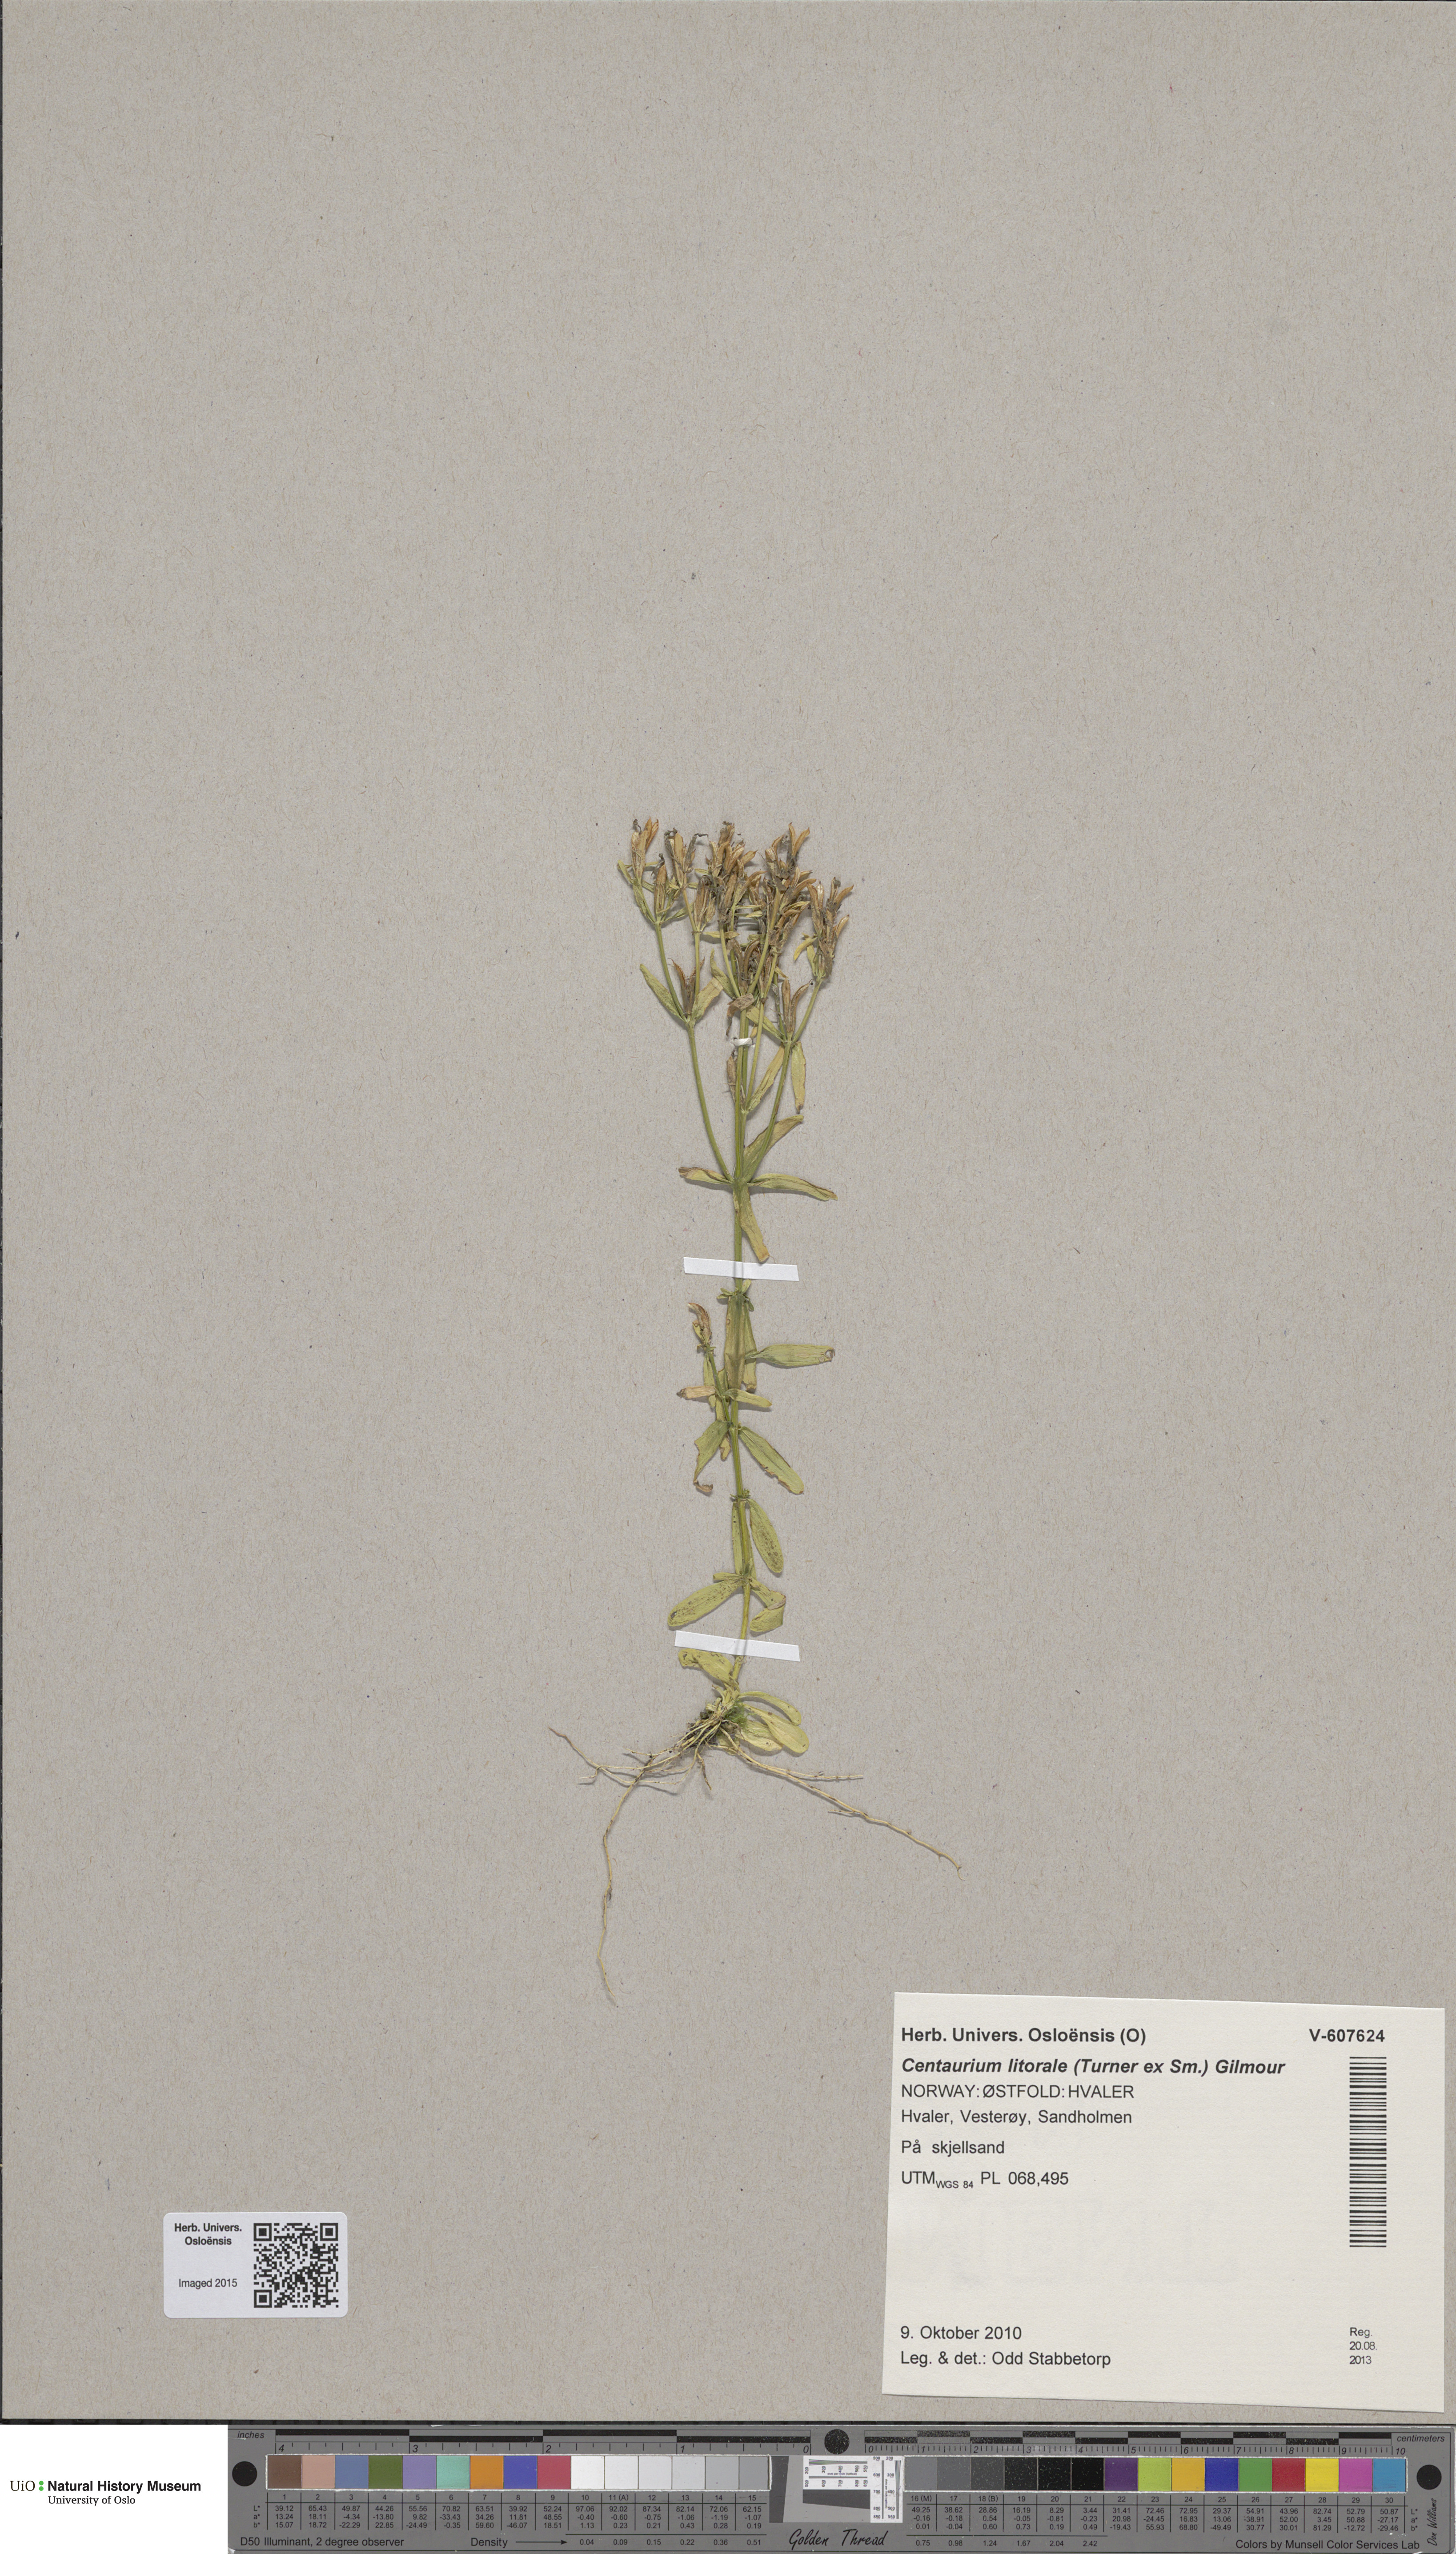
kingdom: Plantae
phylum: Tracheophyta
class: Magnoliopsida
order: Gentianales
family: Gentianaceae
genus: Centaurium
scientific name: Centaurium littorale
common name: Seaside centaury
